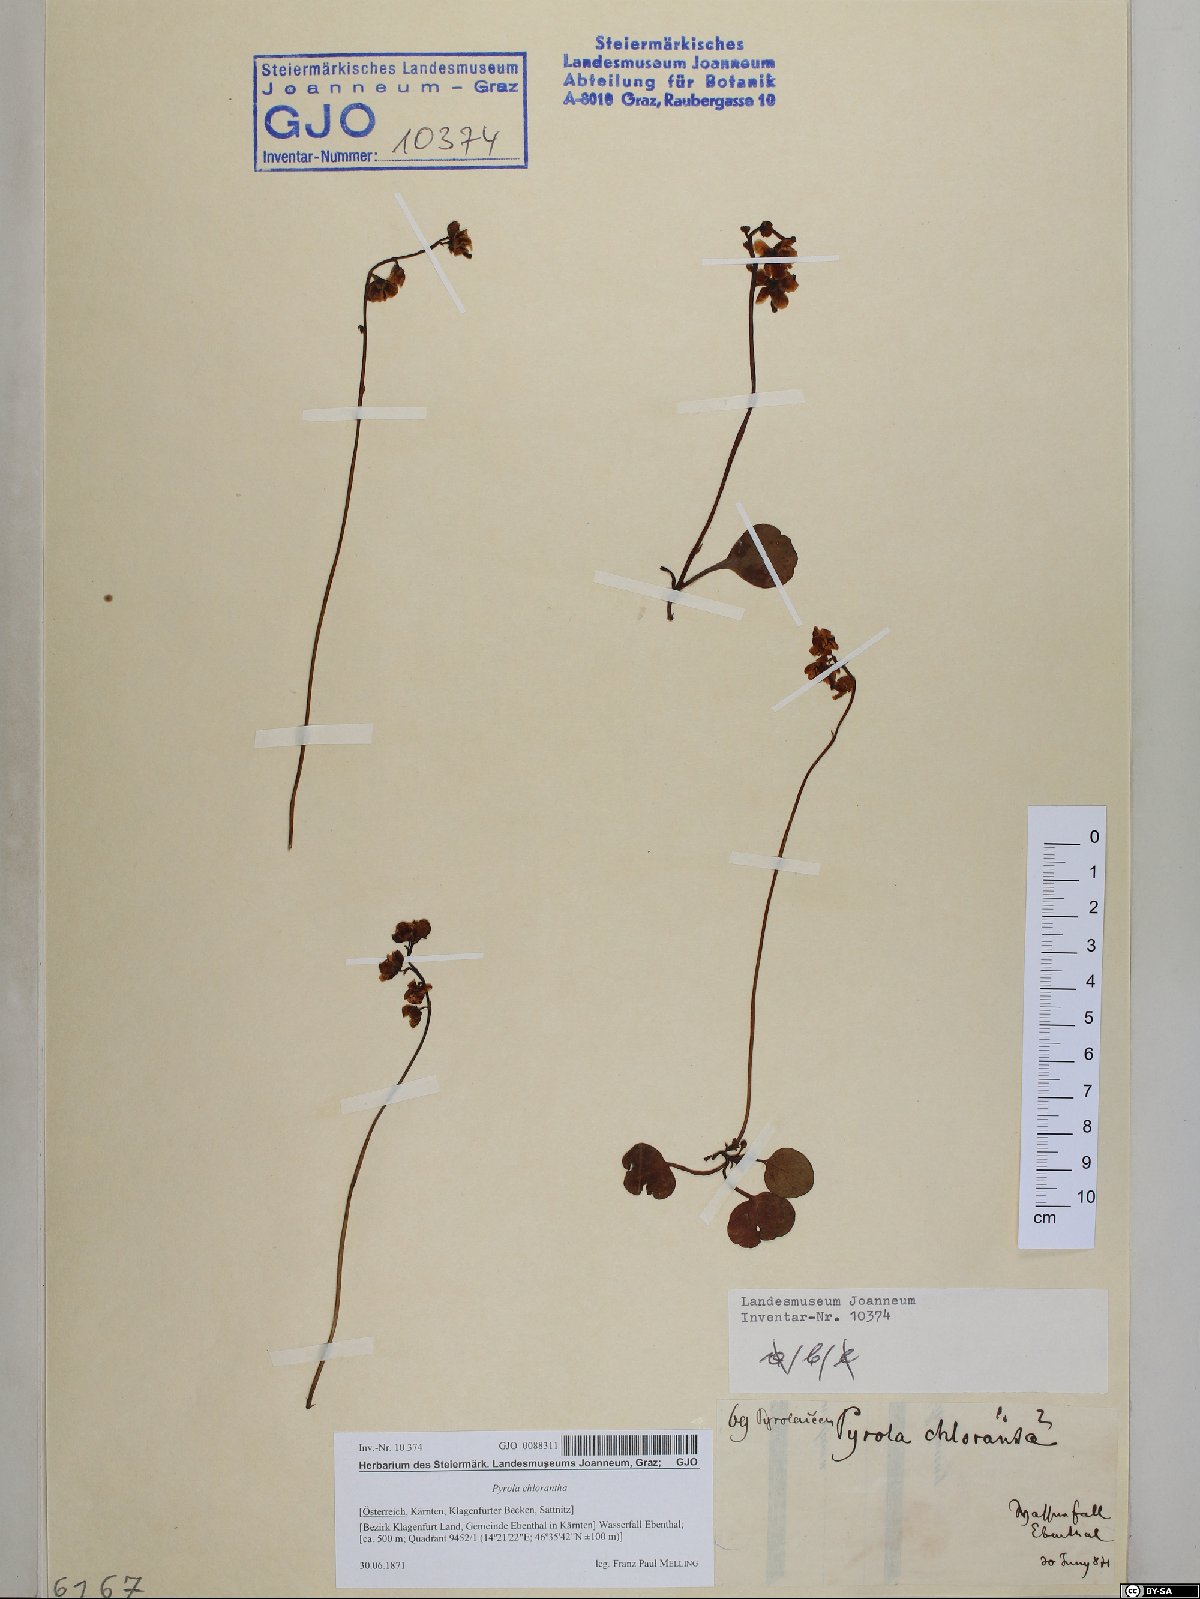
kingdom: Plantae
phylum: Tracheophyta
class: Magnoliopsida
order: Ericales
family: Ericaceae
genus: Pyrola
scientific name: Pyrola chlorantha
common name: Green wintergreen
